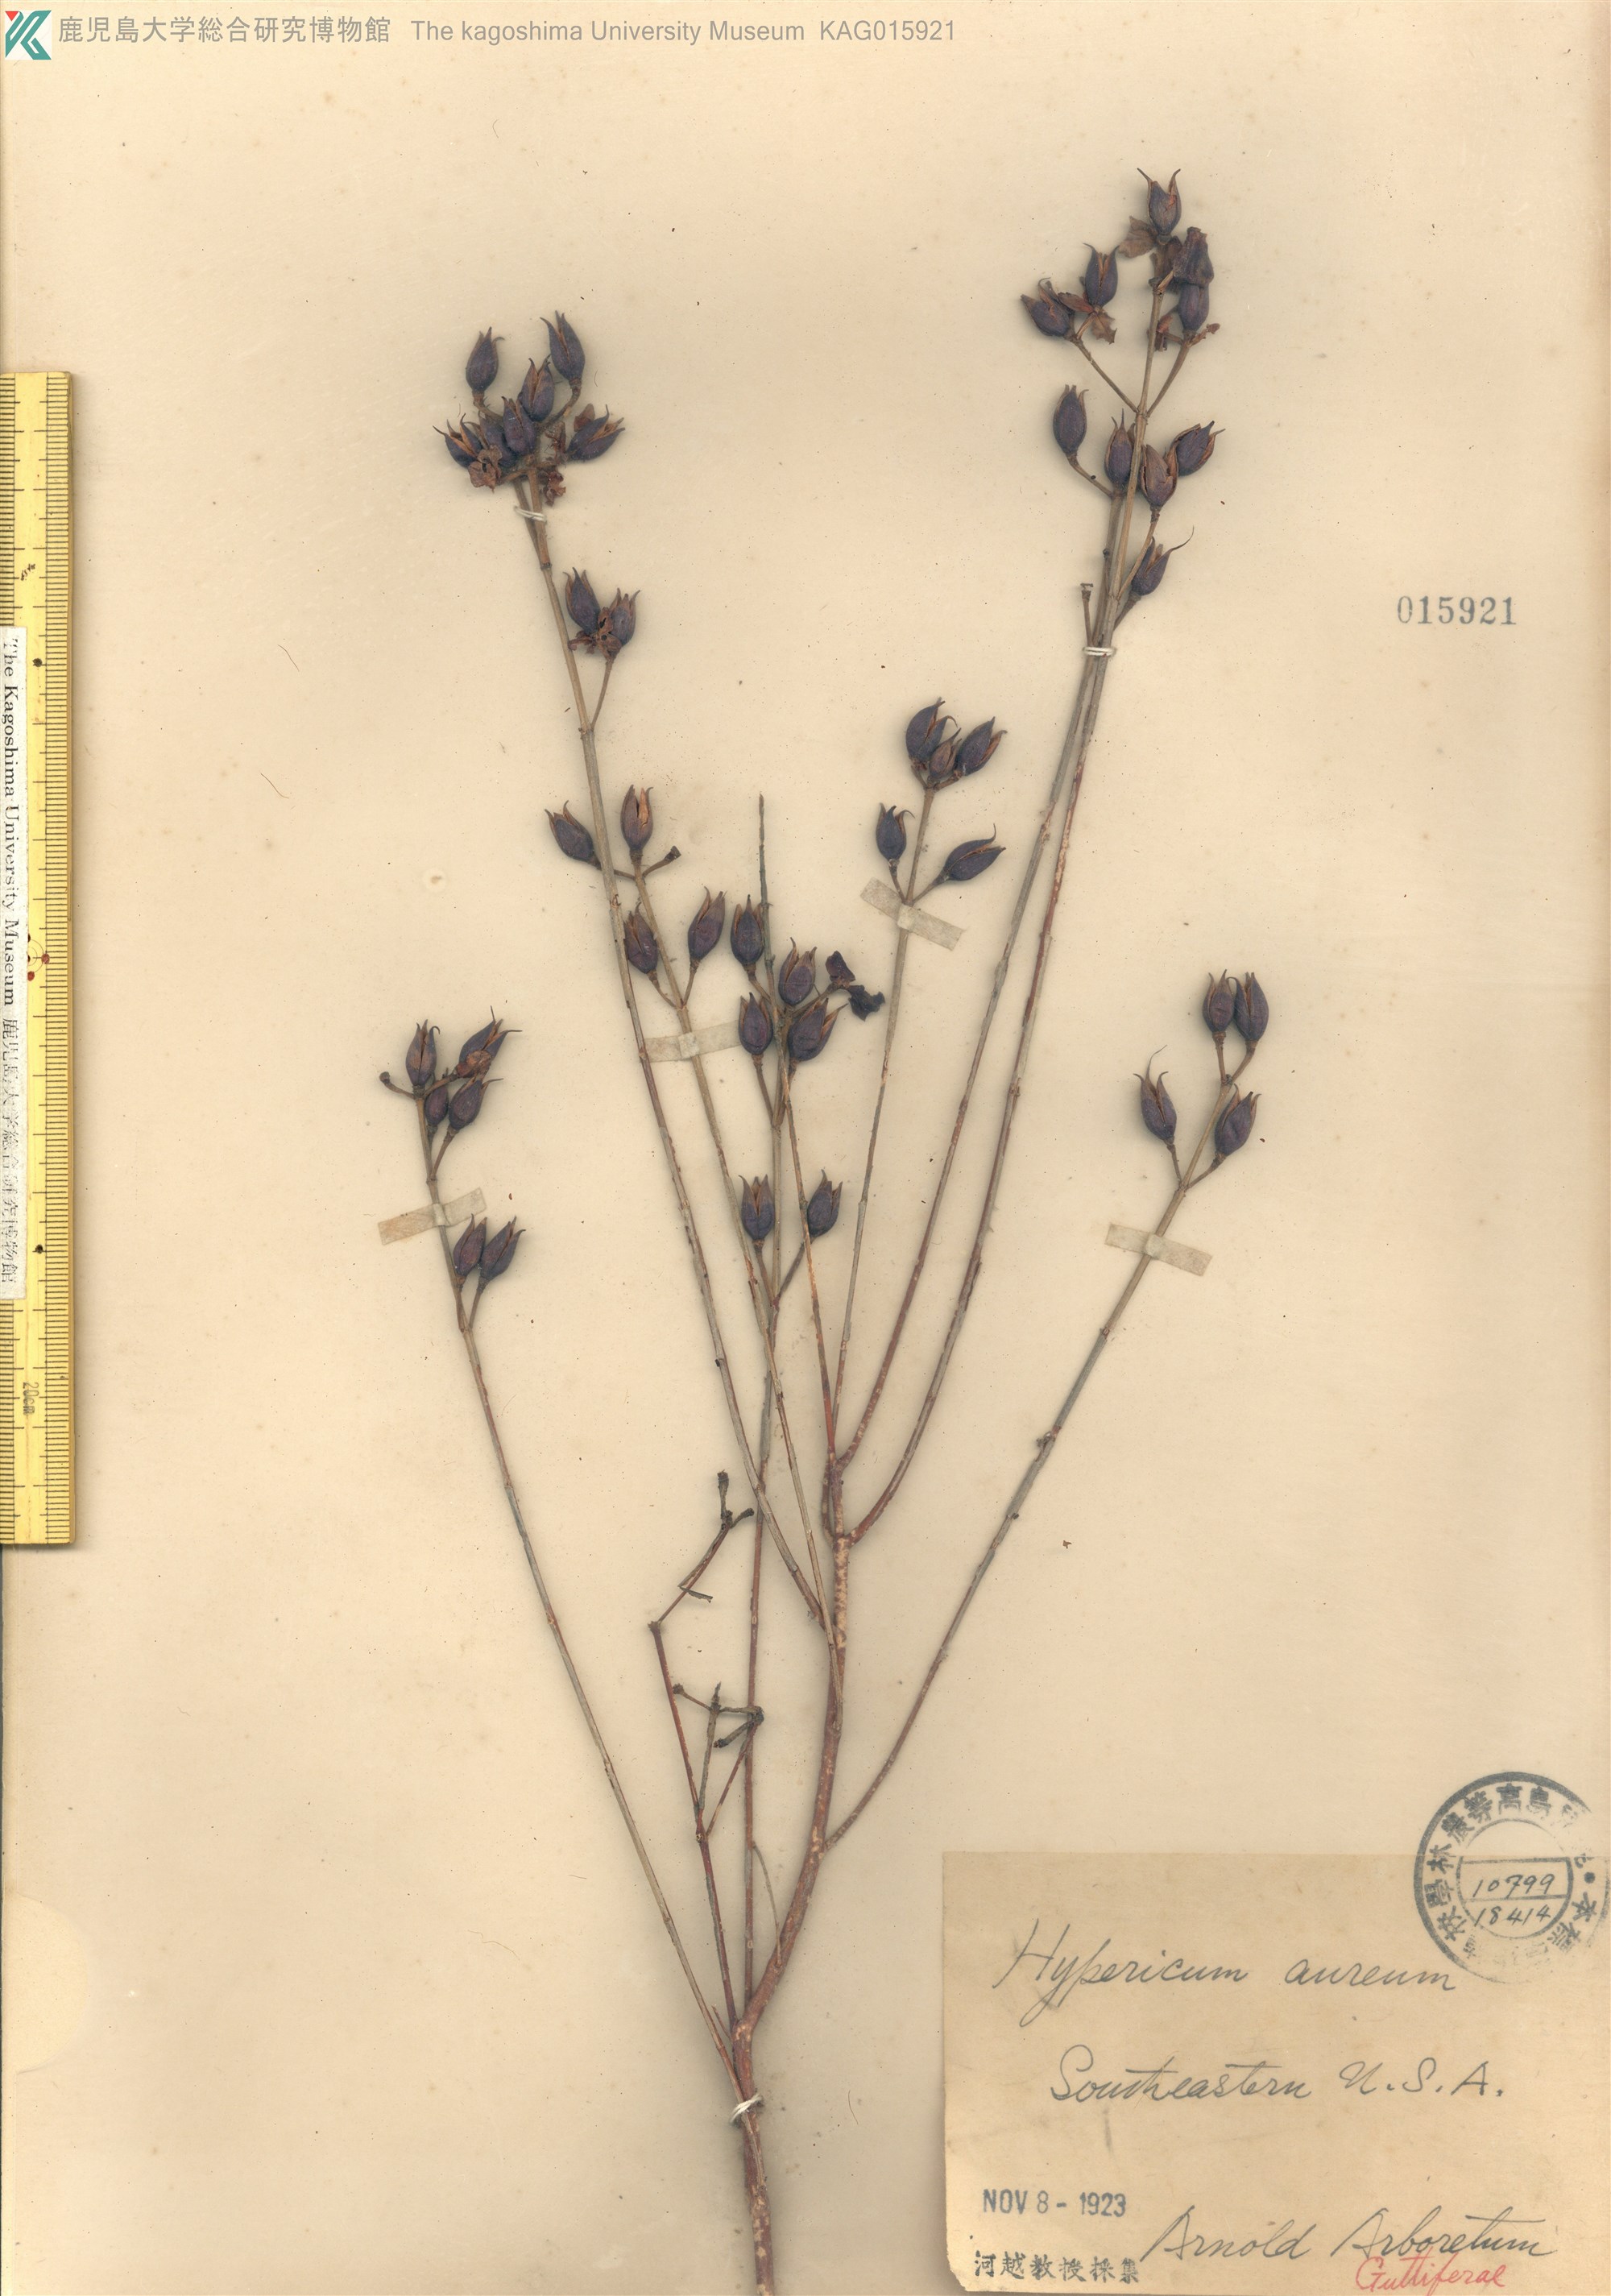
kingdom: Plantae
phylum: Tracheophyta
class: Magnoliopsida
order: Malpighiales
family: Hypericaceae
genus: Hypericum
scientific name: Hypericum monogynum
